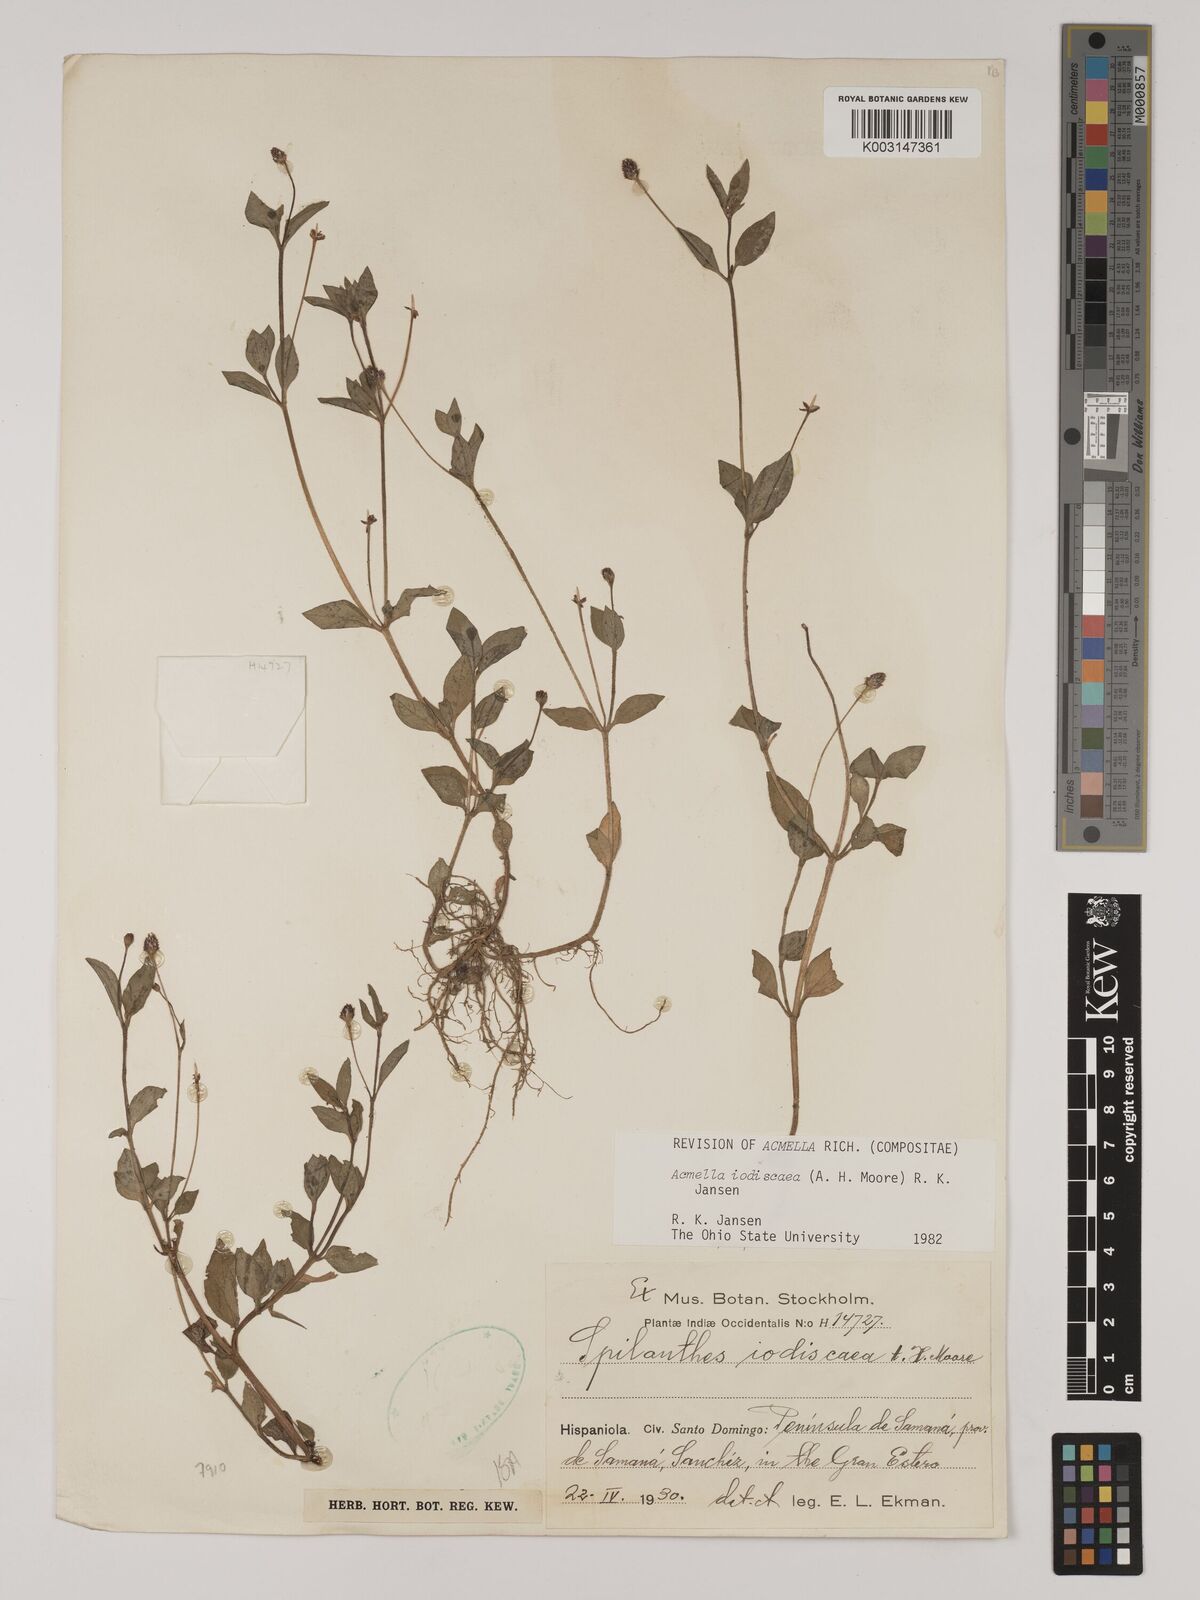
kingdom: Plantae
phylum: Tracheophyta
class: Magnoliopsida
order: Asterales
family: Asteraceae
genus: Acmella
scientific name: Acmella iodiscaea
